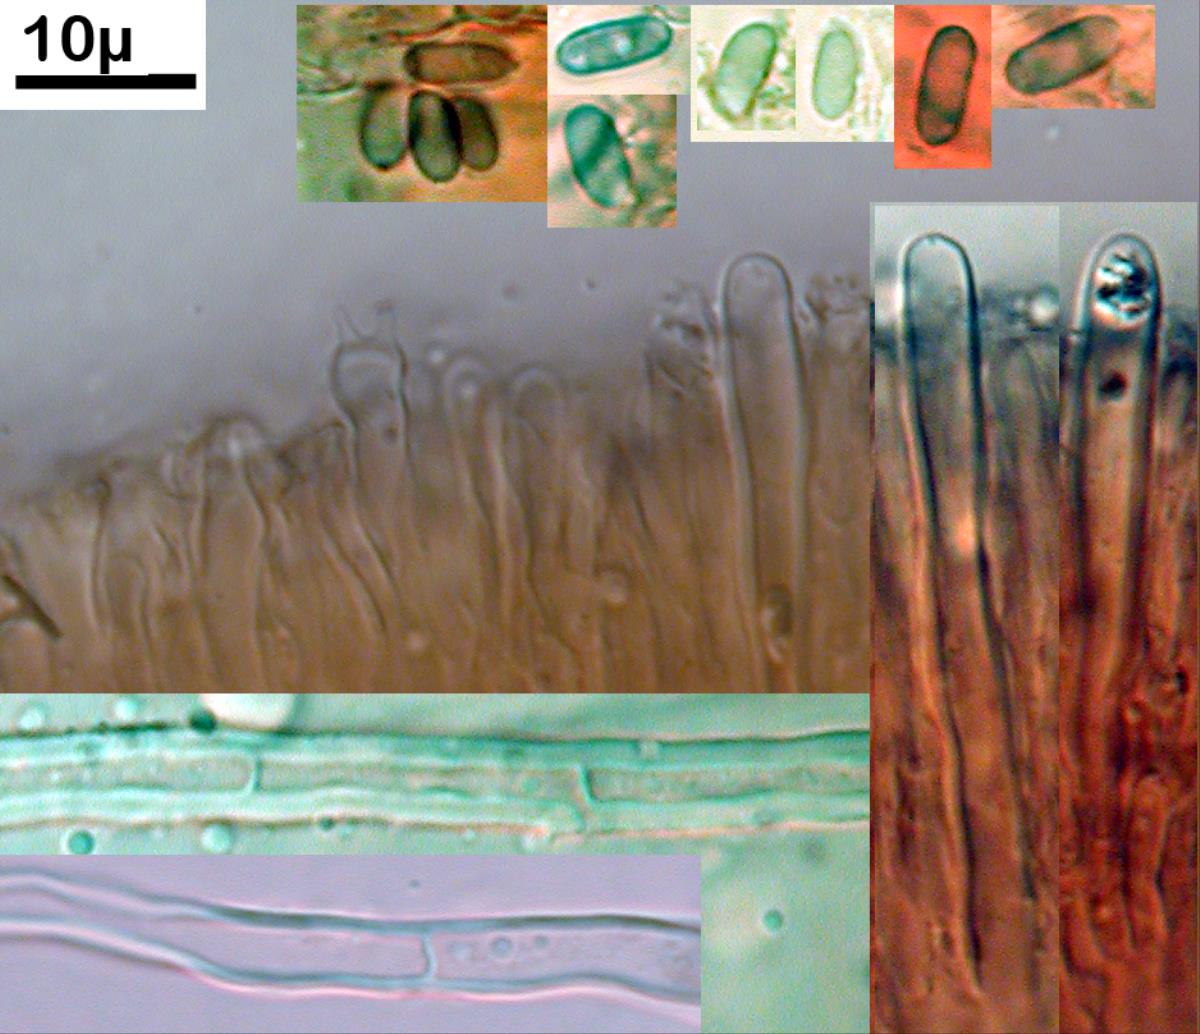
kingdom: Fungi
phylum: Basidiomycota
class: Agaricomycetes
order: Russulales
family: Stereaceae
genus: Stereum
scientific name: Stereum hirsutum
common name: Hairy curtain crust
